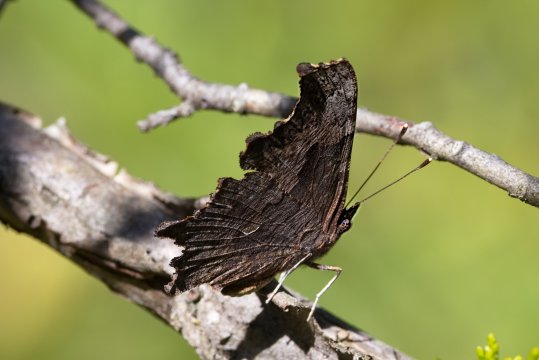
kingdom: Animalia
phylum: Arthropoda
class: Insecta
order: Lepidoptera
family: Nymphalidae
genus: Polygonia
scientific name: Polygonia progne
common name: Gray Comma
